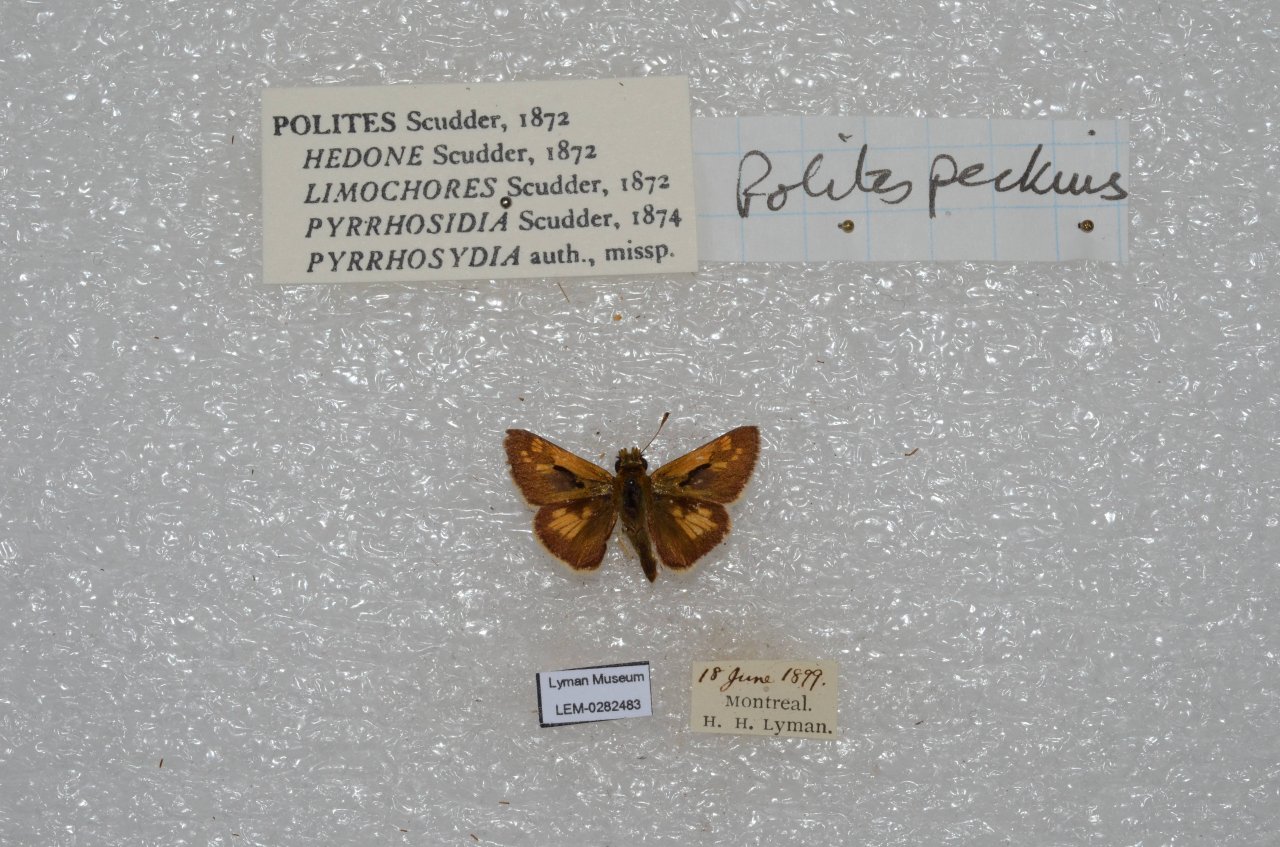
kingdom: Animalia
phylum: Arthropoda
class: Insecta
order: Lepidoptera
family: Hesperiidae
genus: Polites
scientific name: Polites coras
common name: Peck's Skipper
